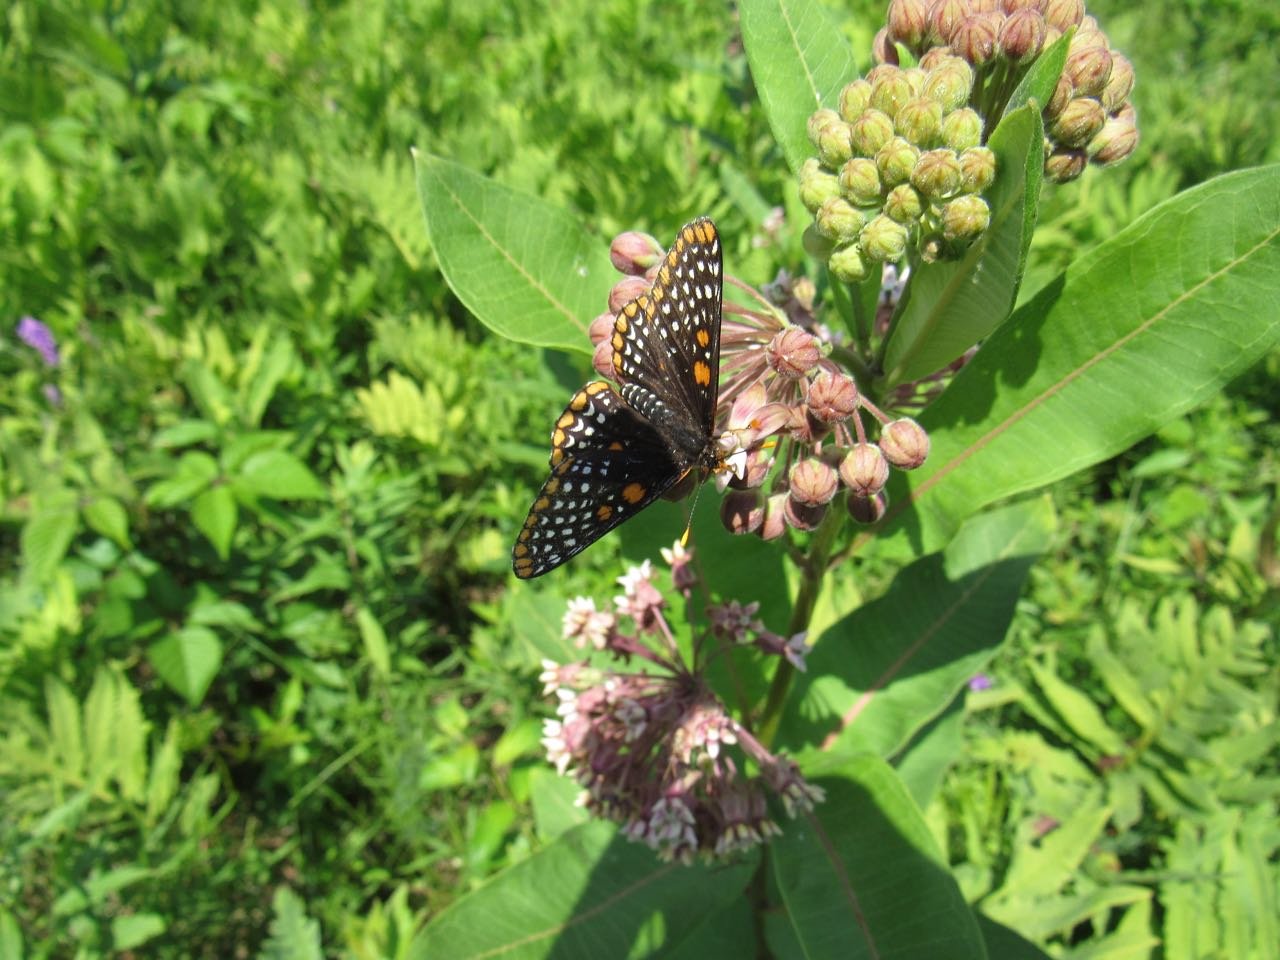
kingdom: Animalia
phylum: Arthropoda
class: Insecta
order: Lepidoptera
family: Nymphalidae
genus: Euphydryas
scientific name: Euphydryas phaeton
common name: Baltimore Checkerspot
